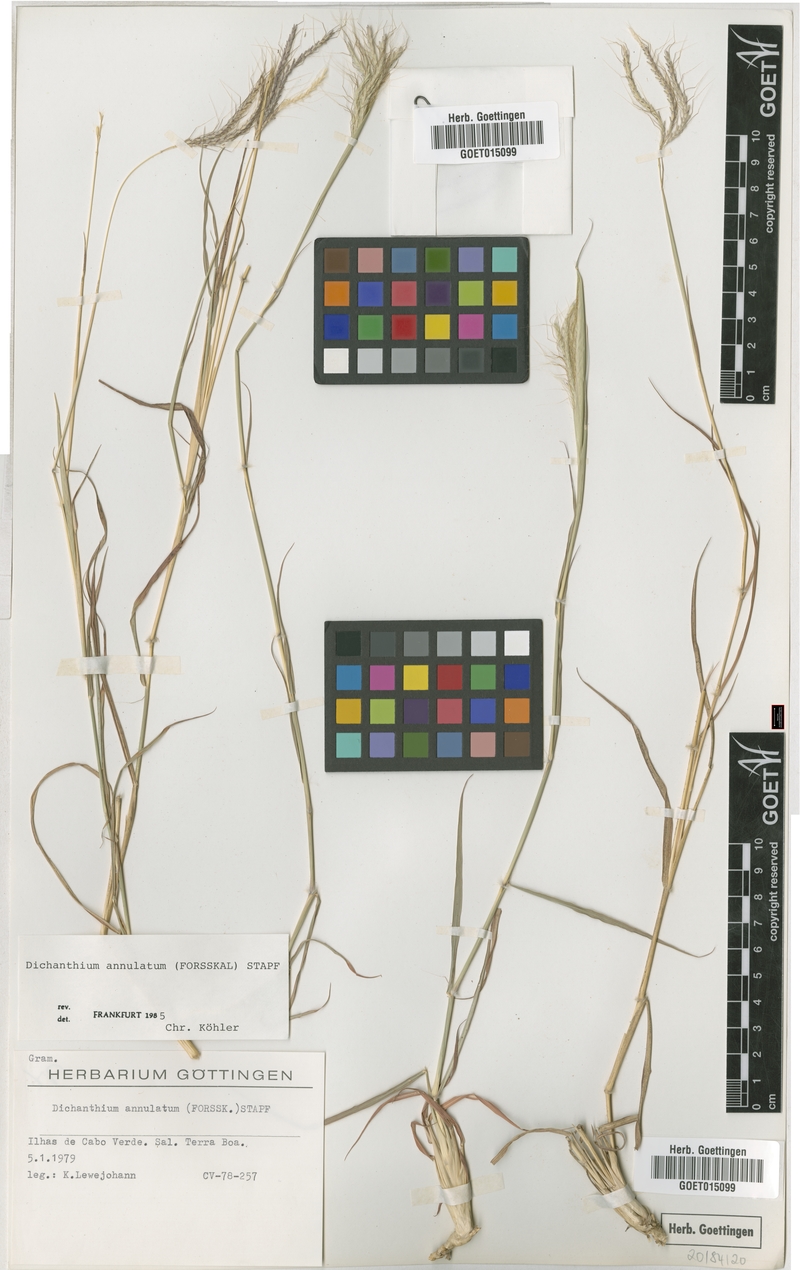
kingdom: Plantae
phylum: Tracheophyta
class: Liliopsida
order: Poales
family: Poaceae
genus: Dichanthium
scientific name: Dichanthium annulatum
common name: Kleberg's bluestem
